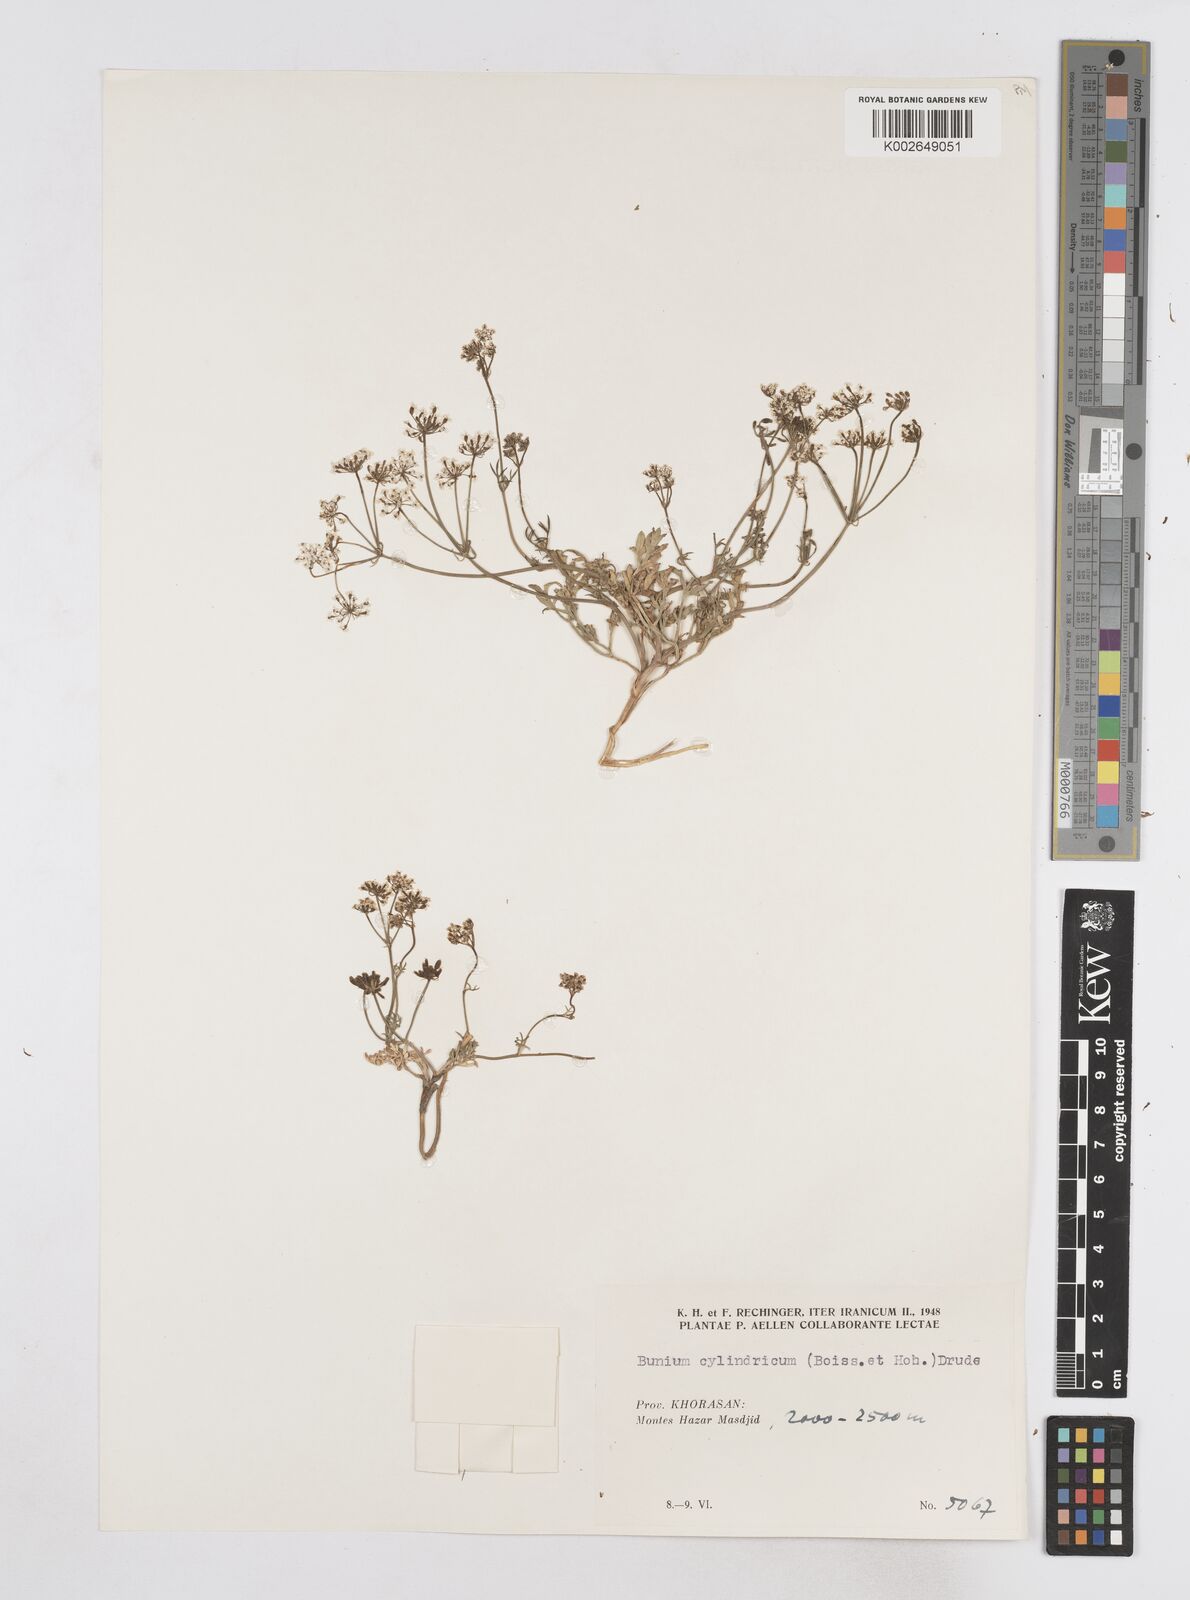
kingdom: Plantae
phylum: Tracheophyta
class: Magnoliopsida
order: Apiales
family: Apiaceae
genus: Elwendia
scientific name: Elwendia cylindrica
